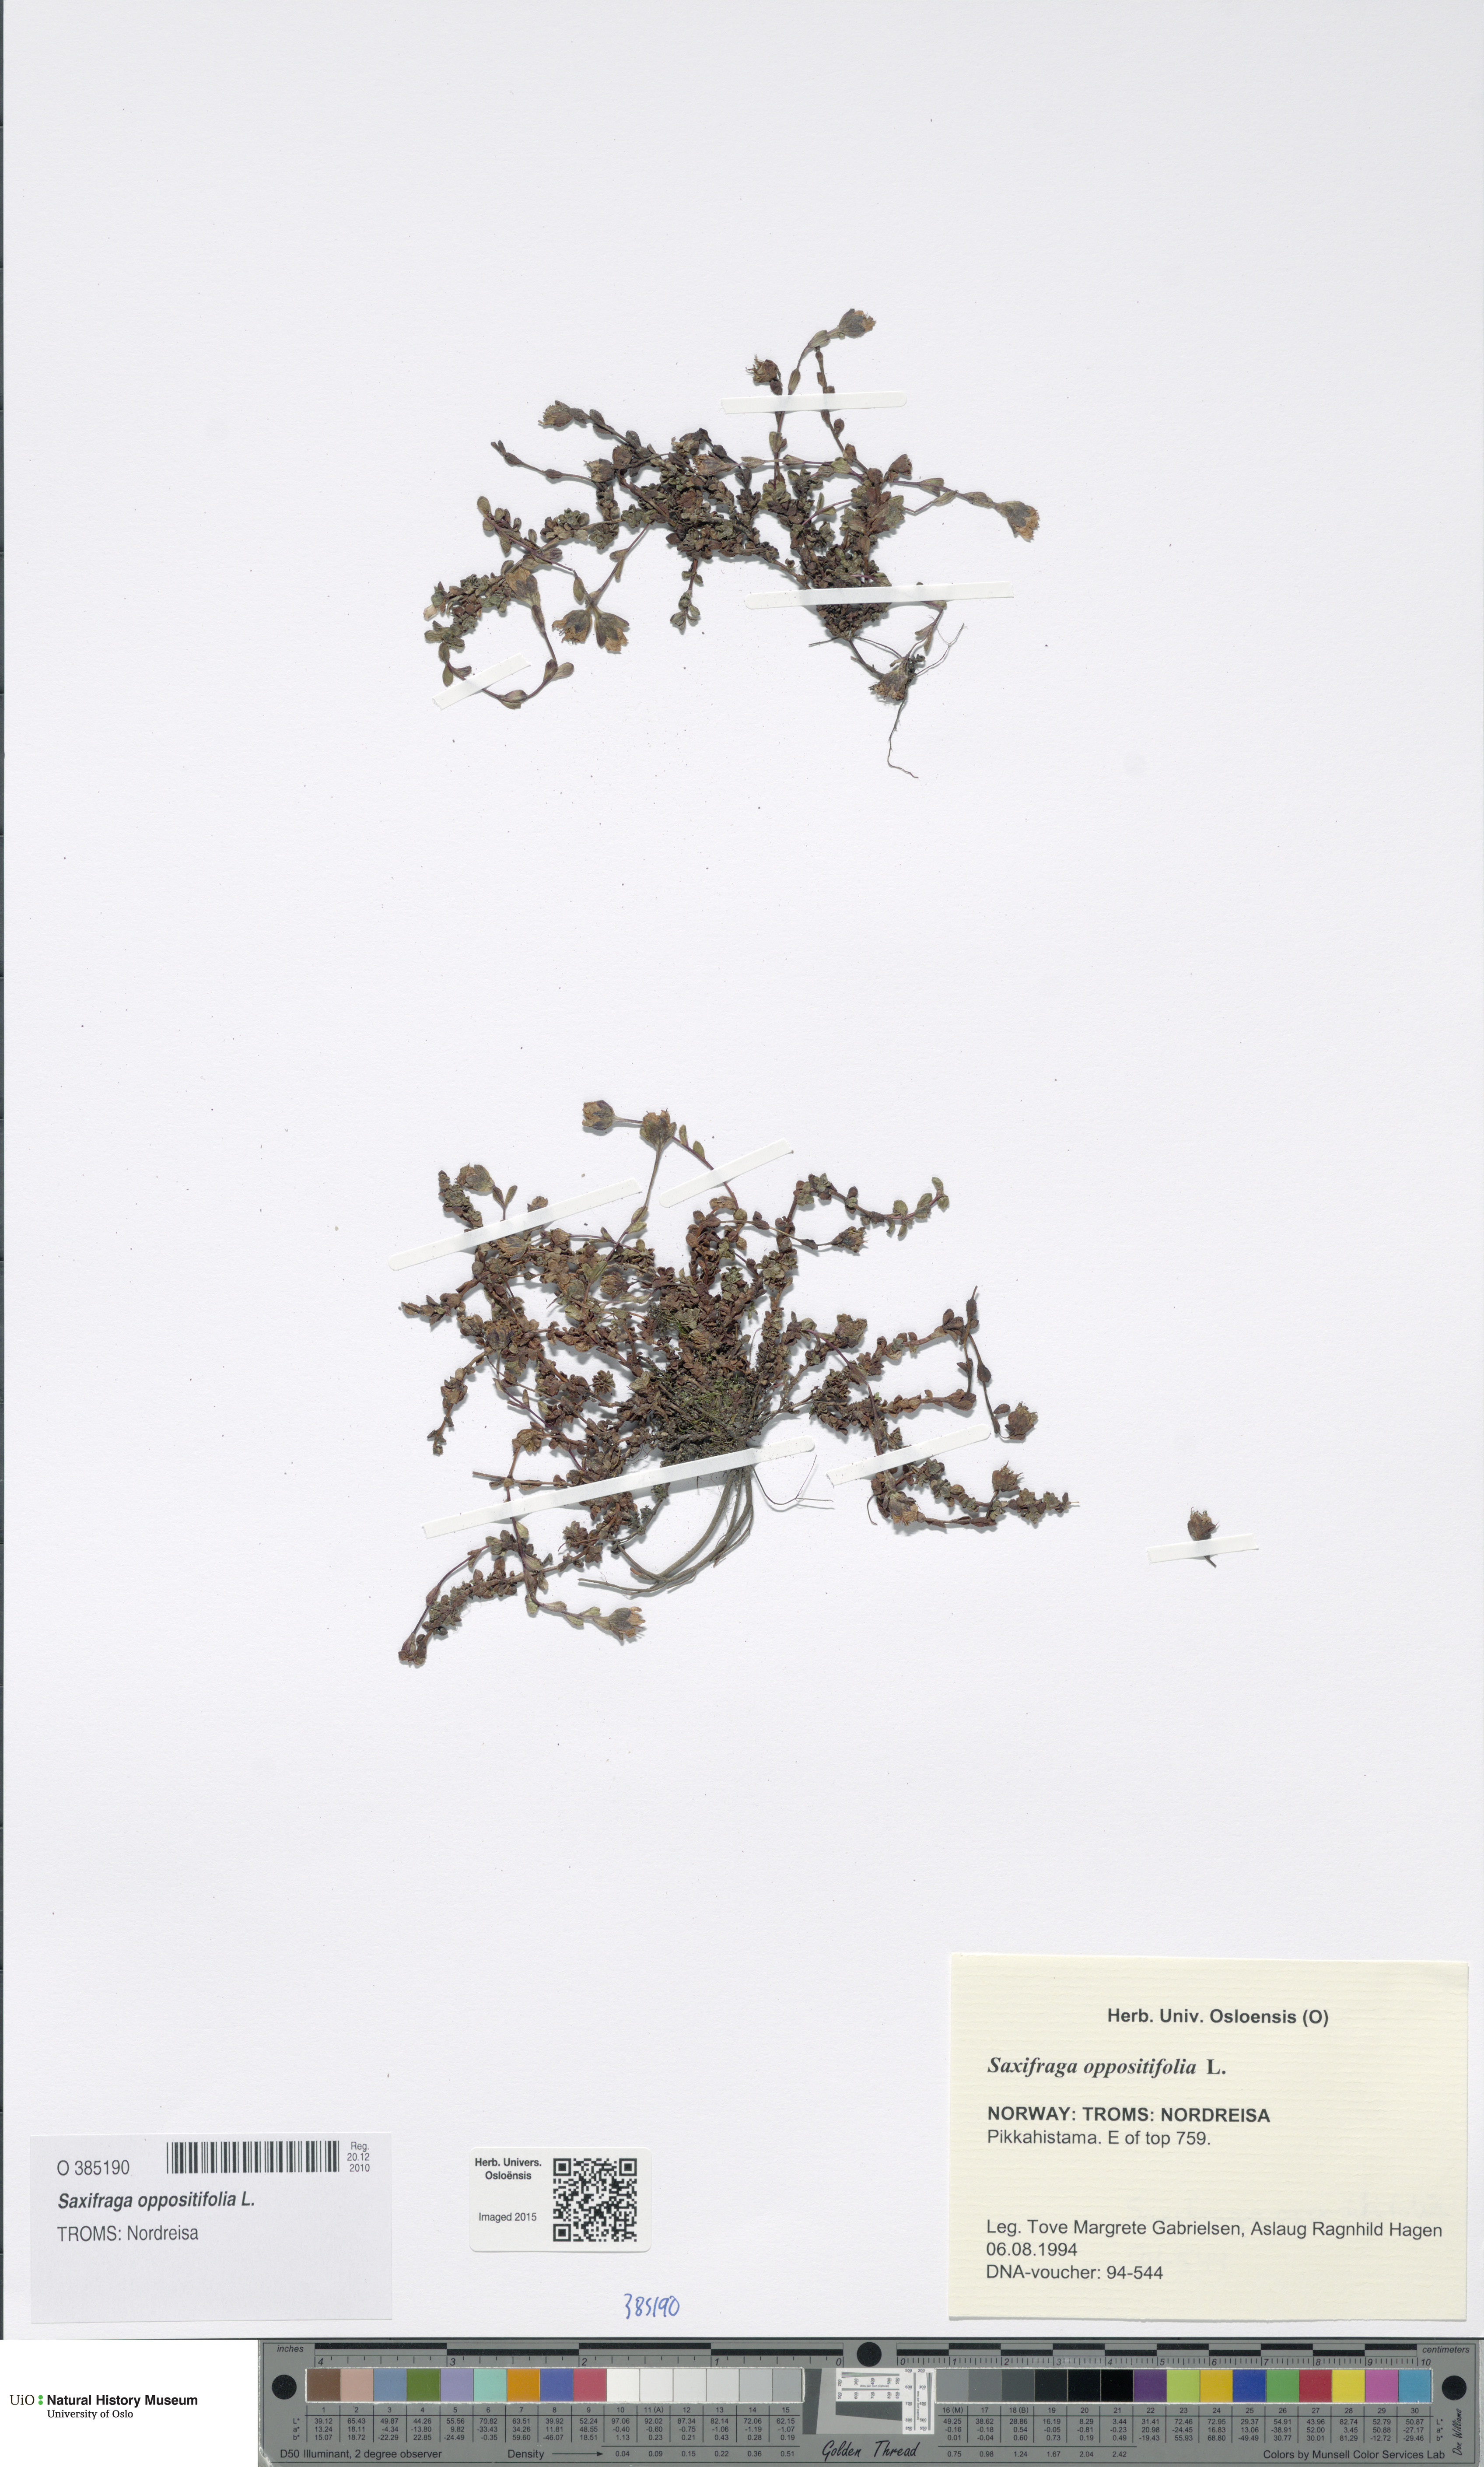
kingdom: Plantae
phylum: Tracheophyta
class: Magnoliopsida
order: Saxifragales
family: Saxifragaceae
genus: Saxifraga
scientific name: Saxifraga oppositifolia
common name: Purple saxifrage
